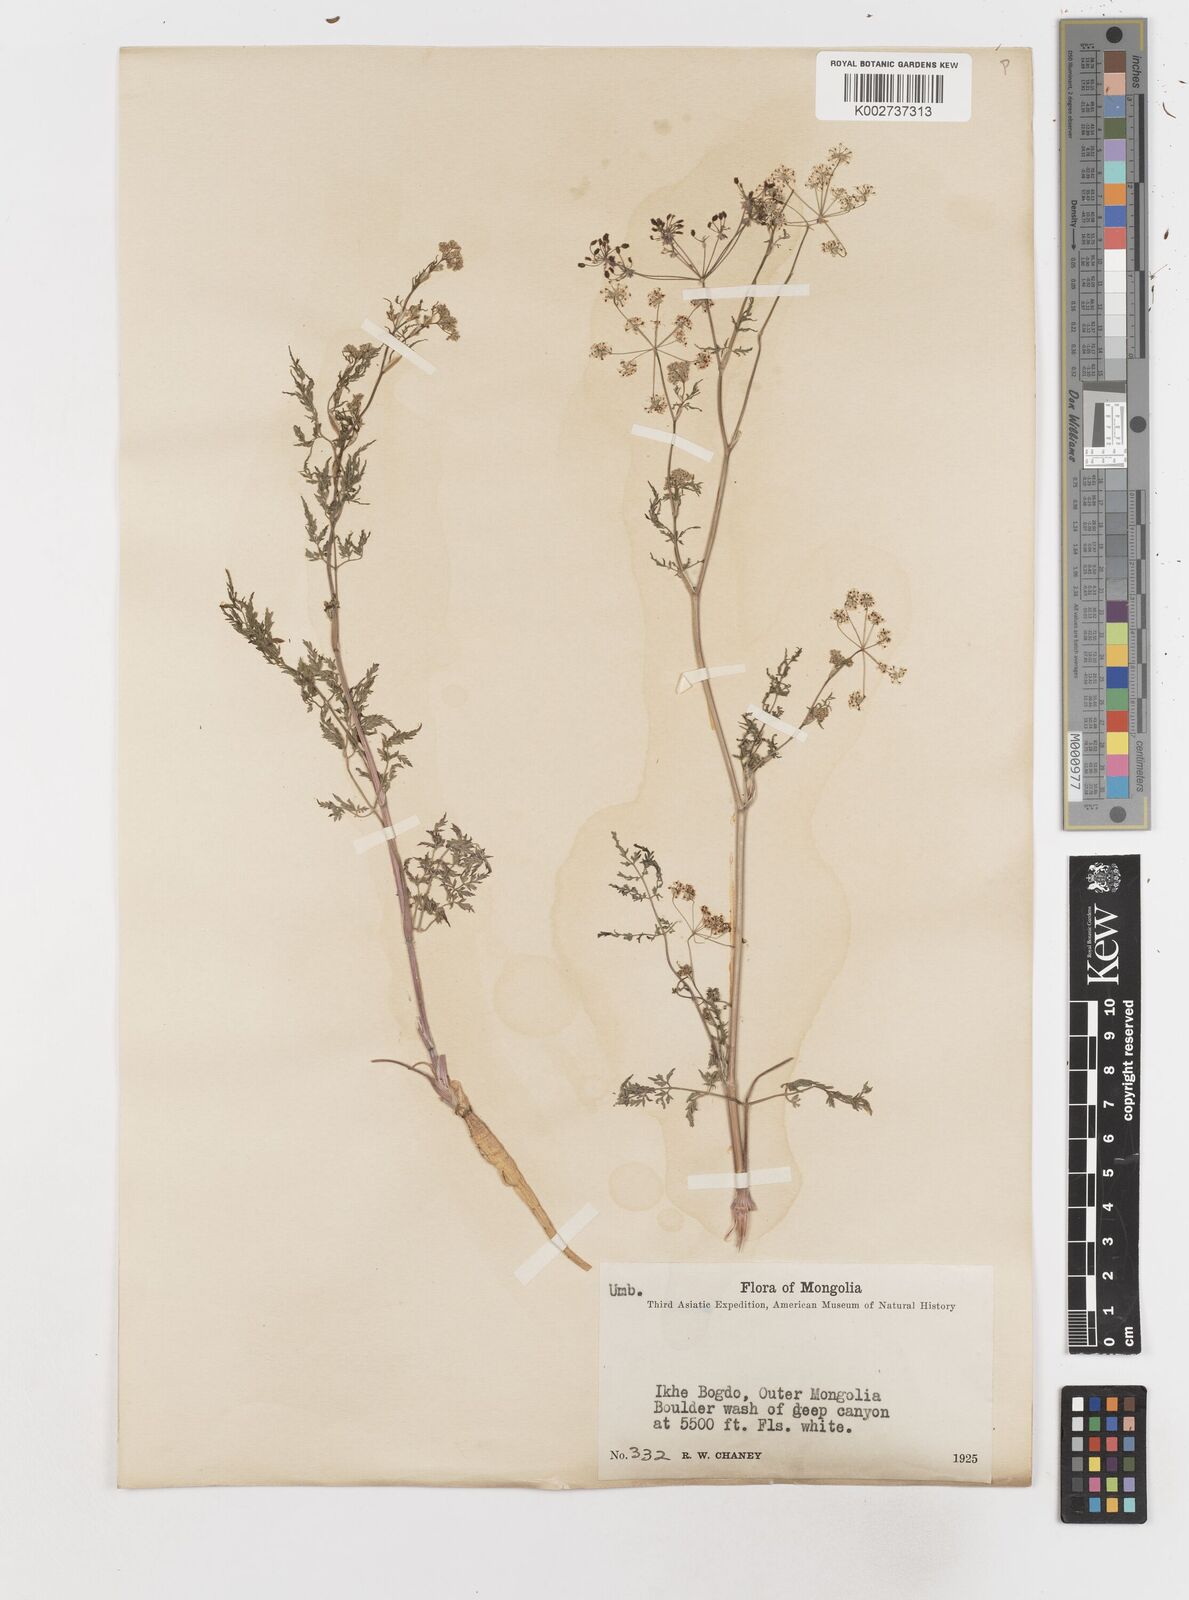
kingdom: Plantae
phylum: Tracheophyta
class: Magnoliopsida
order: Apiales
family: Apiaceae
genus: Sphallerocarpus
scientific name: Sphallerocarpus gracilis
